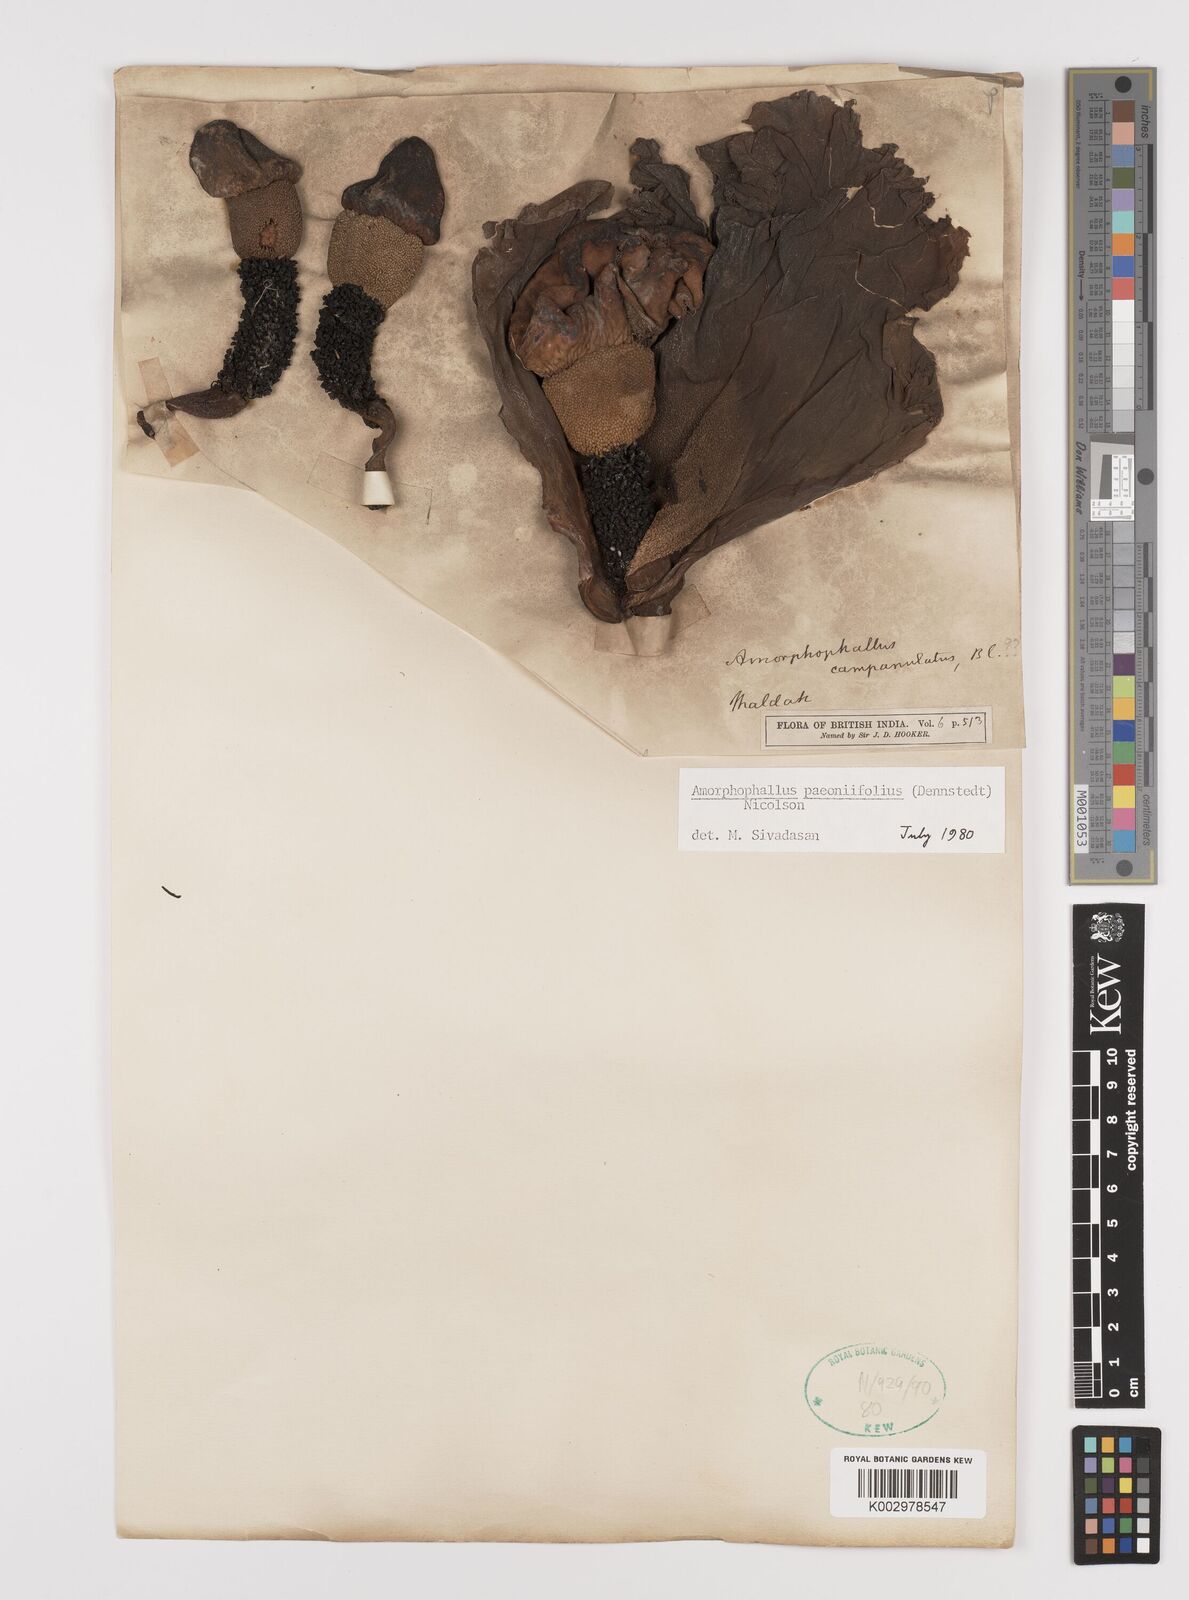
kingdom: Plantae
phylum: Tracheophyta
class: Liliopsida
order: Alismatales
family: Araceae
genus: Amorphophallus
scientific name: Amorphophallus paeoniifolius
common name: Telinga-potato
